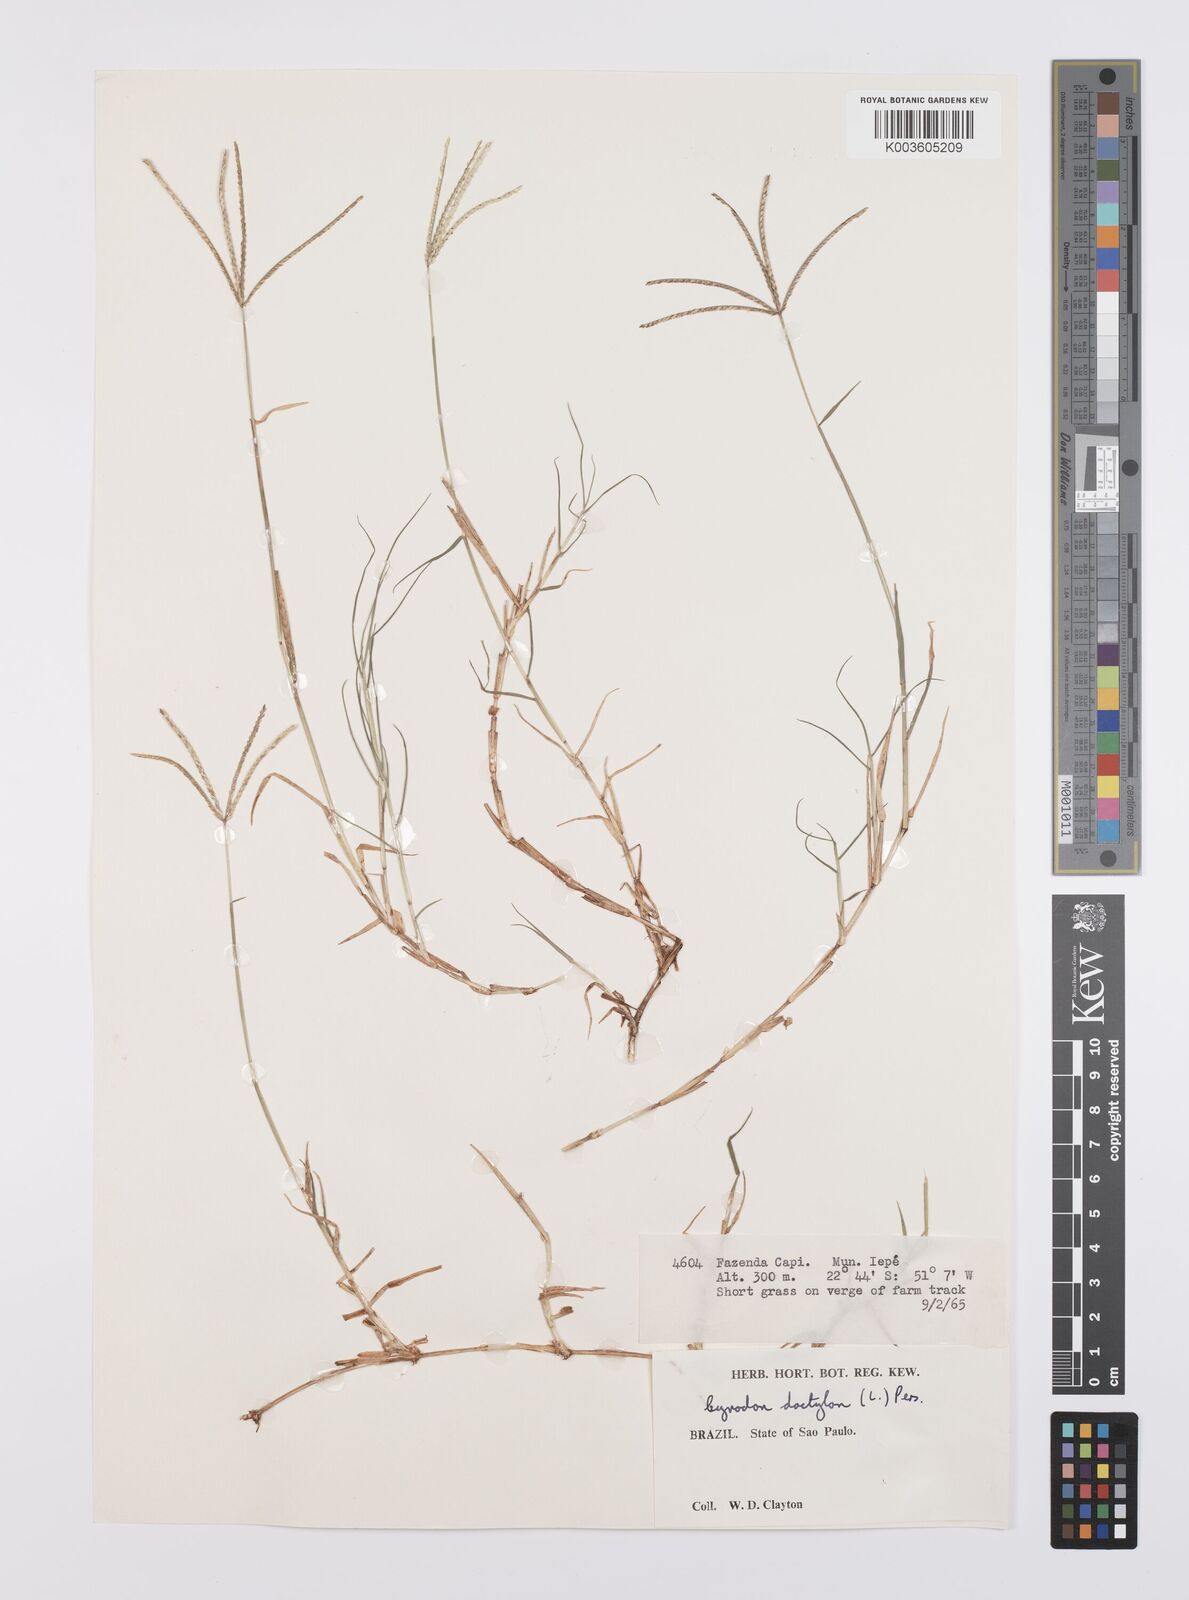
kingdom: Plantae
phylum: Tracheophyta
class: Liliopsida
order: Poales
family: Poaceae
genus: Cynodon
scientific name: Cynodon dactylon
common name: Bermuda grass
